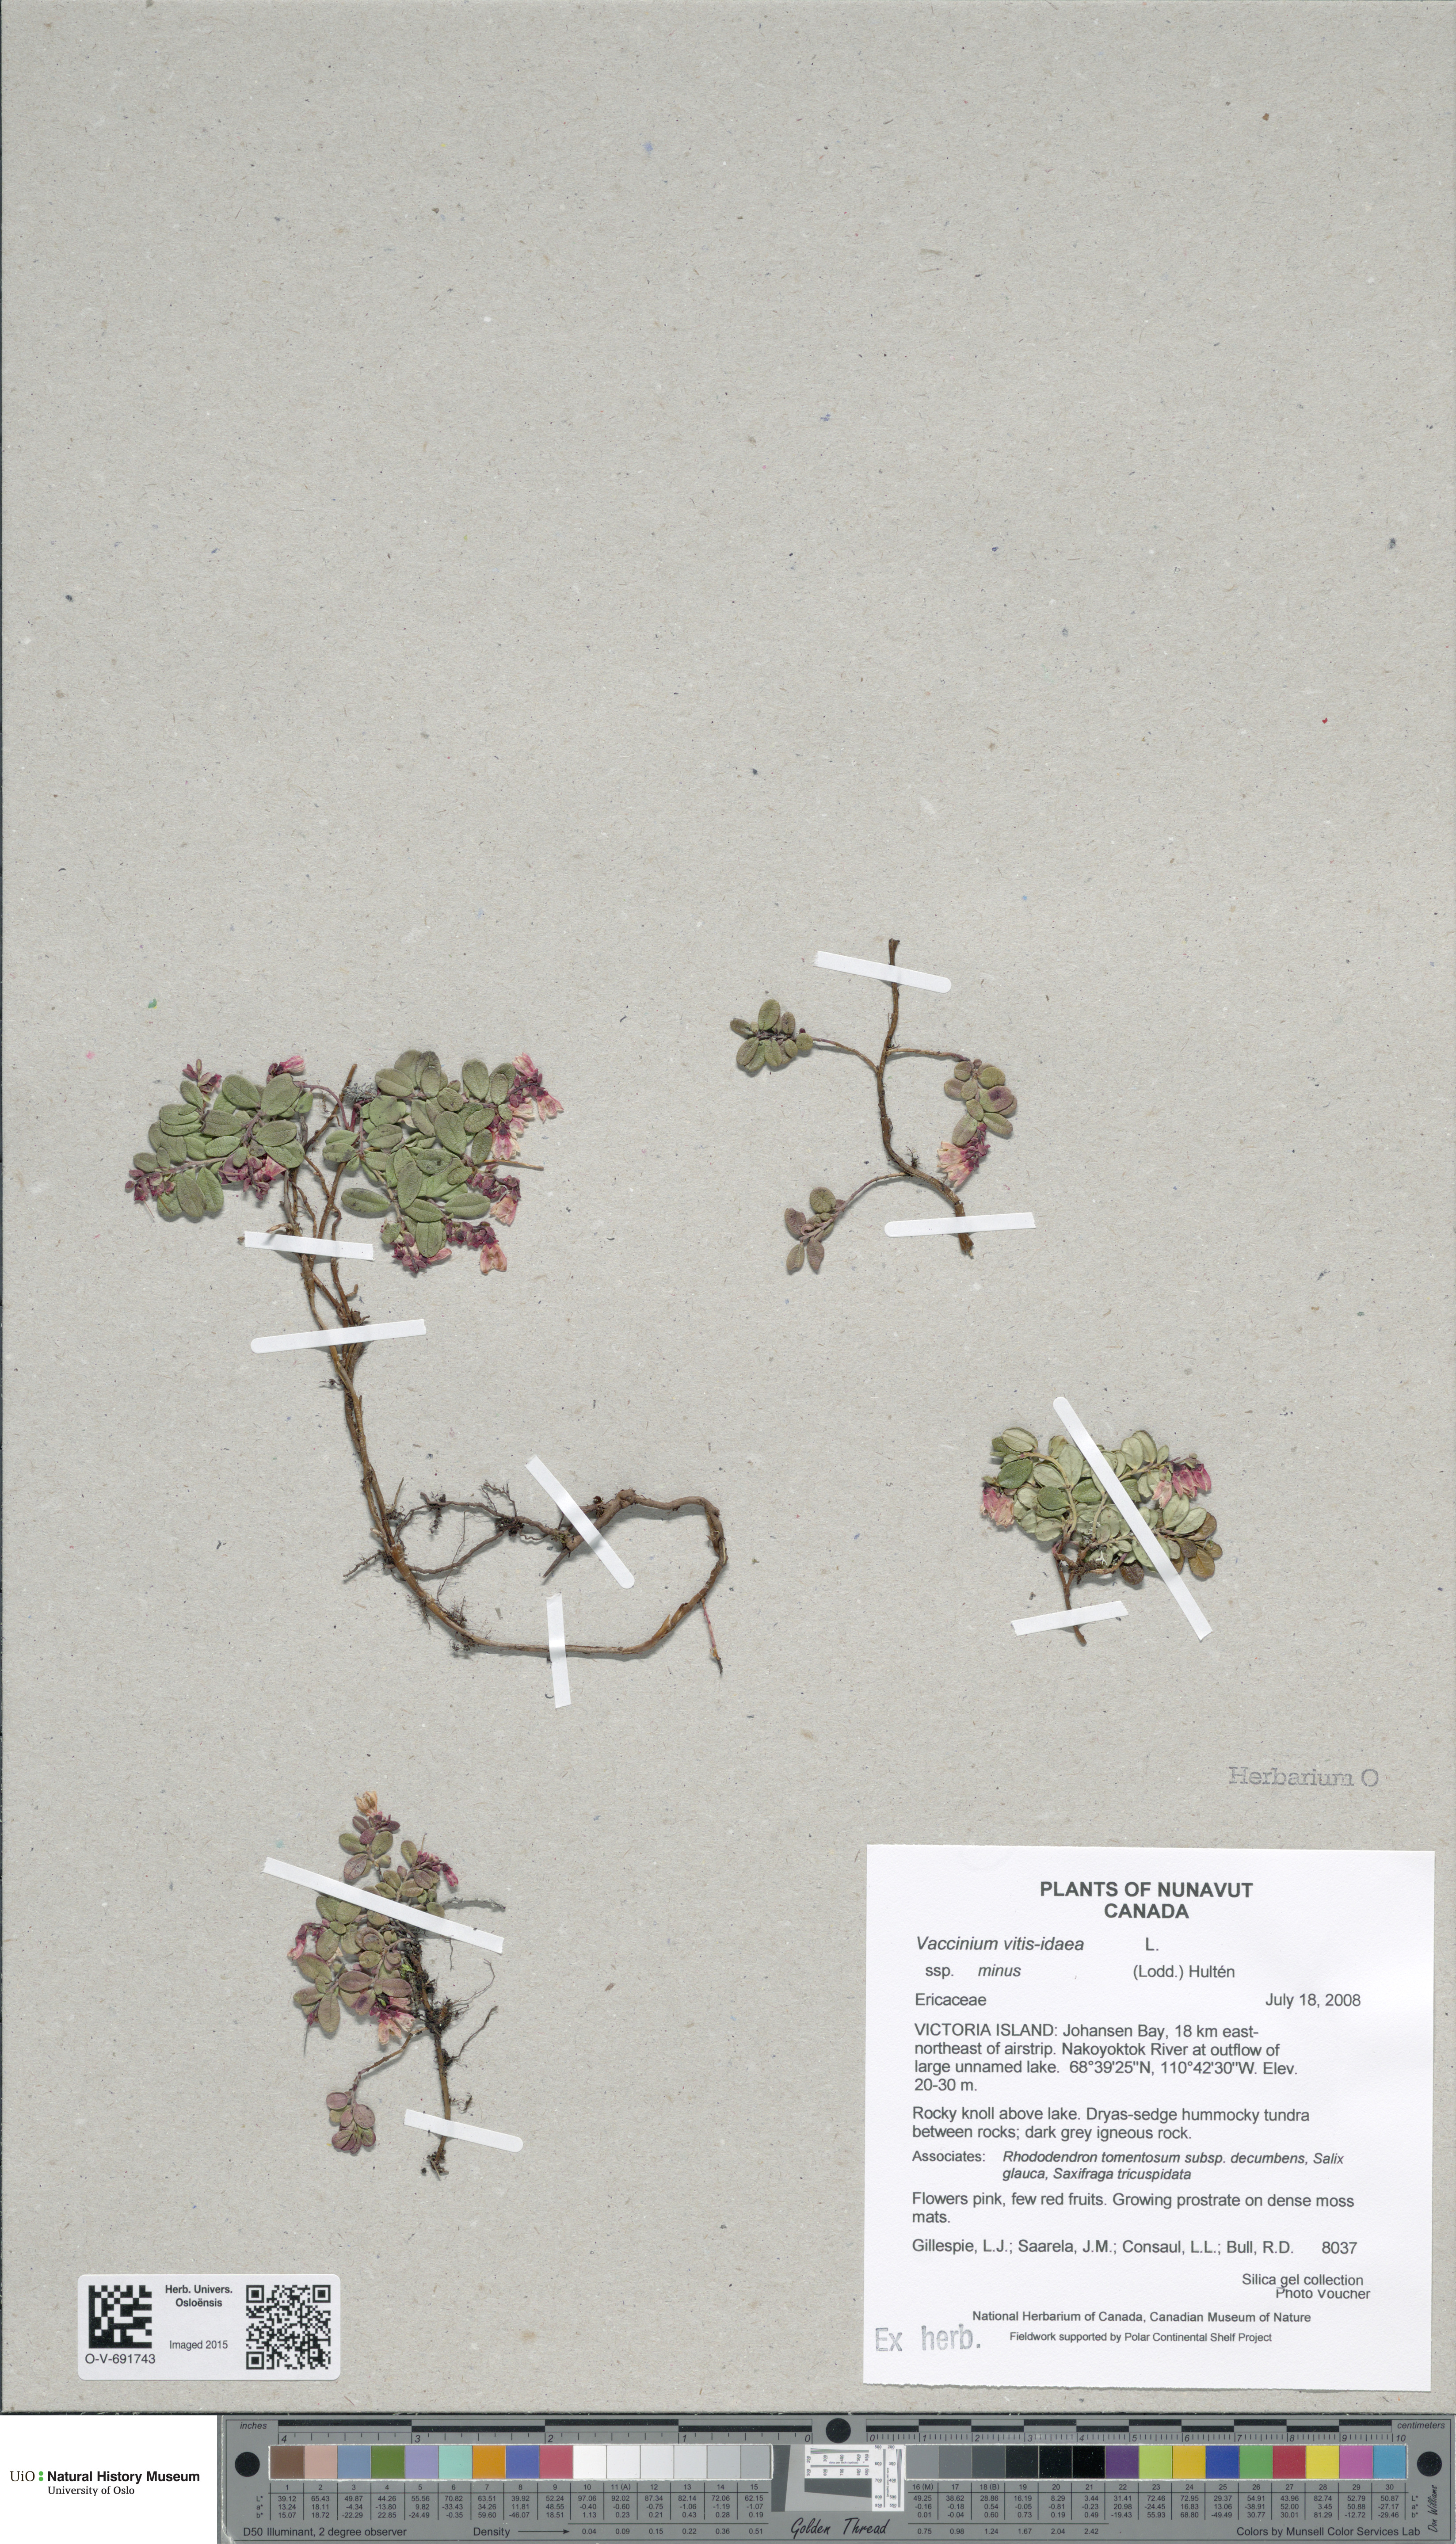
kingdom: Plantae
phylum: Tracheophyta
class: Magnoliopsida
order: Ericales
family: Ericaceae
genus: Vaccinium
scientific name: Vaccinium vitis-idaea
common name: Cowberry
